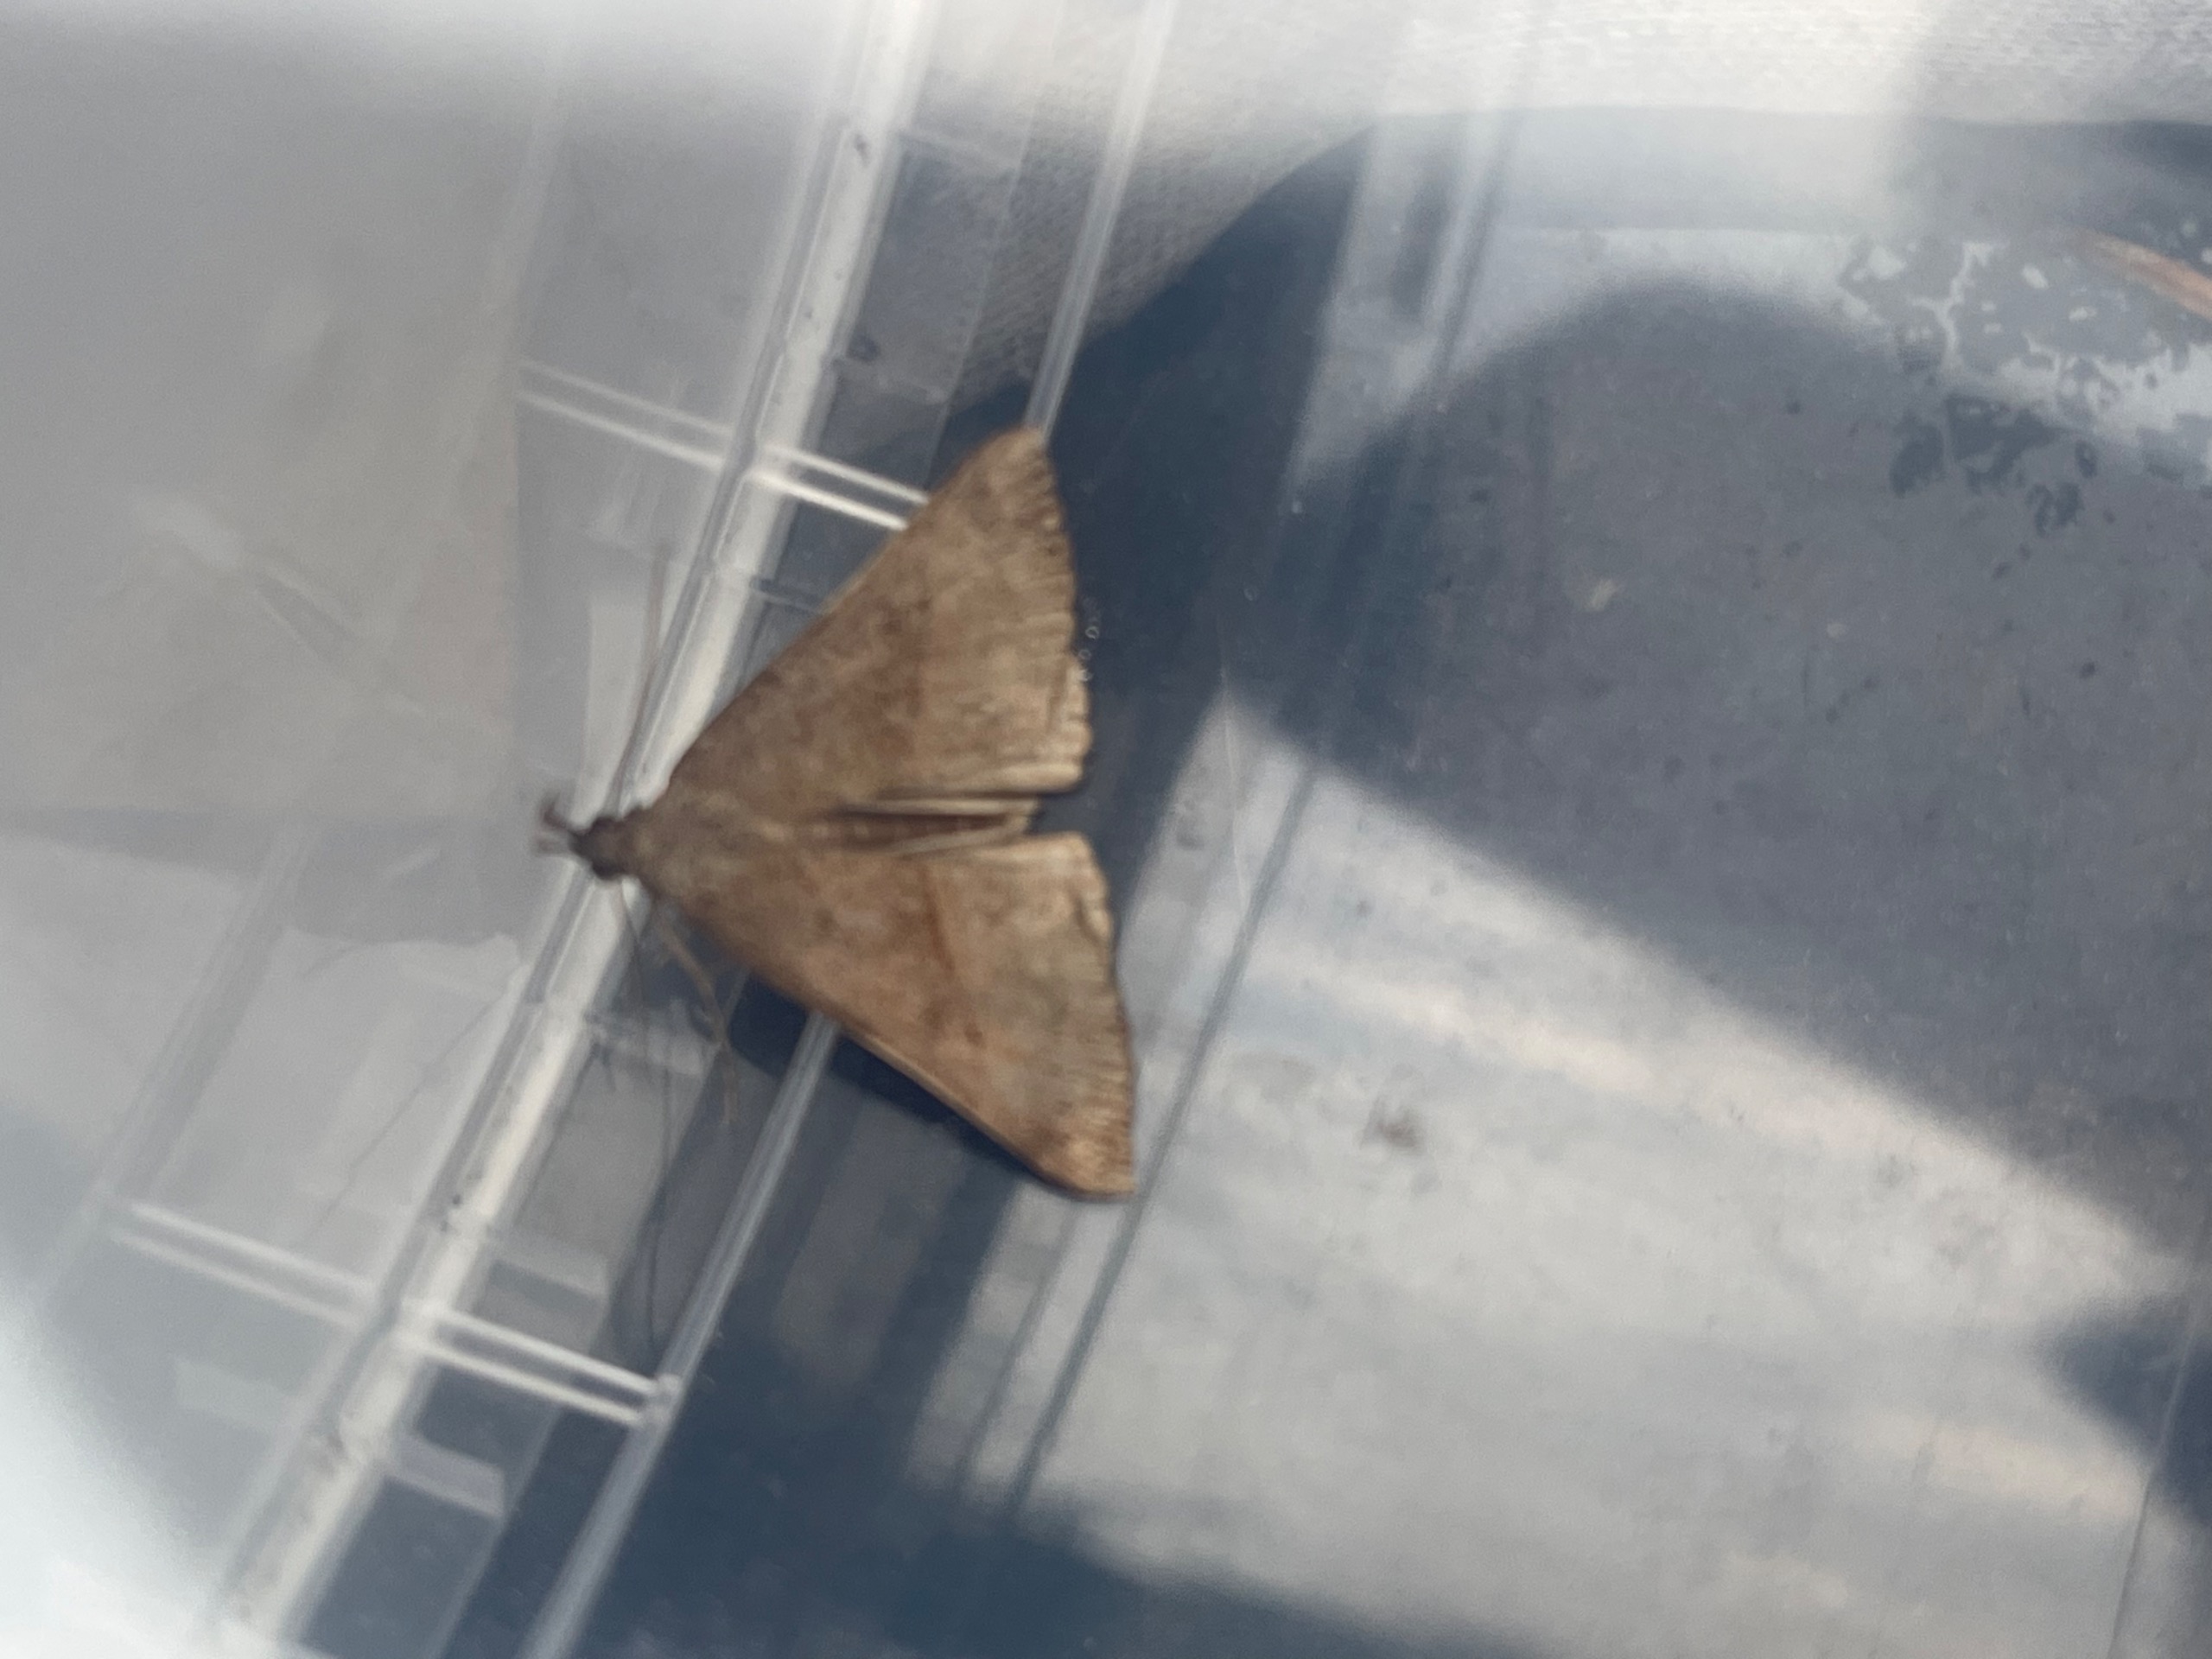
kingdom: Animalia
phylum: Arthropoda
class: Insecta
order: Lepidoptera
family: Erebidae
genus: Hypena
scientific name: Hypena proboscidalis
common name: Snudeugle
